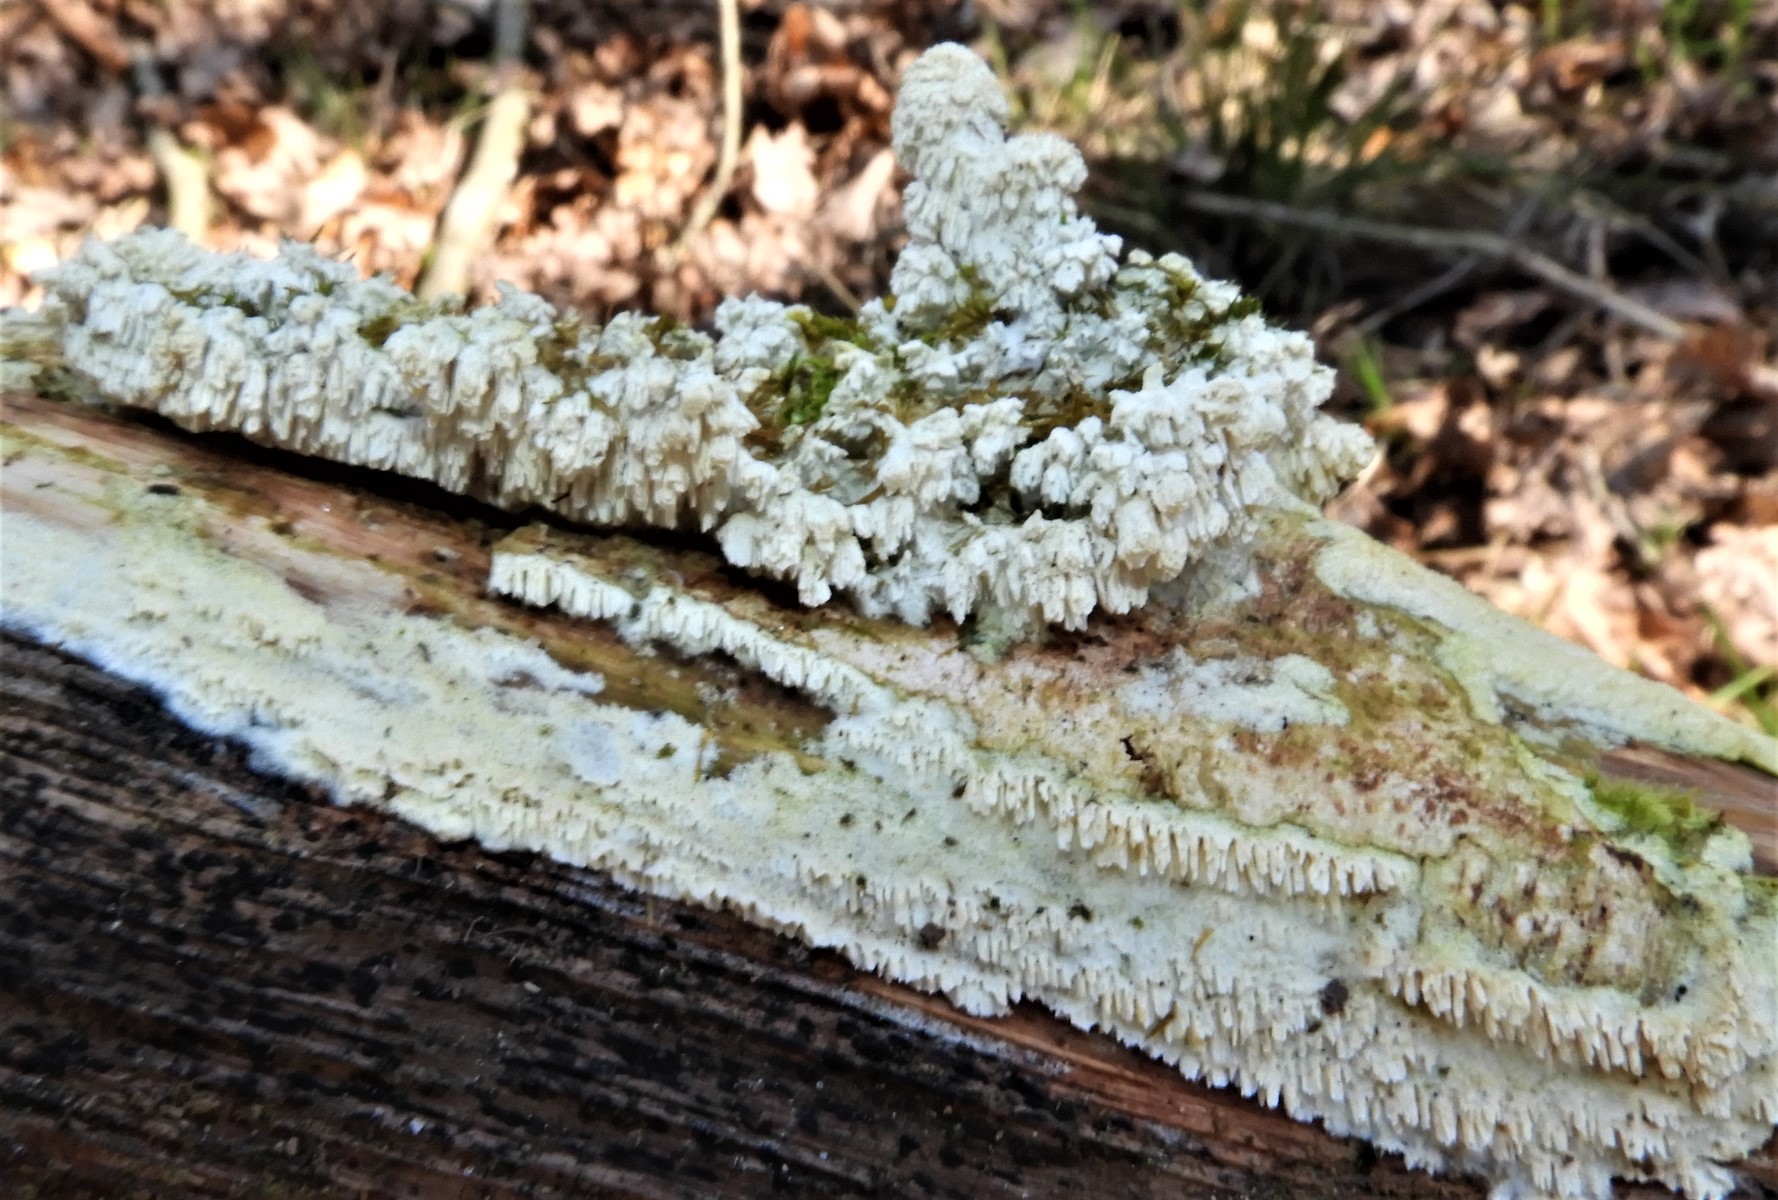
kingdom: Fungi
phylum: Basidiomycota
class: Agaricomycetes
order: Hymenochaetales
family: Schizoporaceae
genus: Schizopora
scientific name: Schizopora paradoxa
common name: hvid tandsvamp
